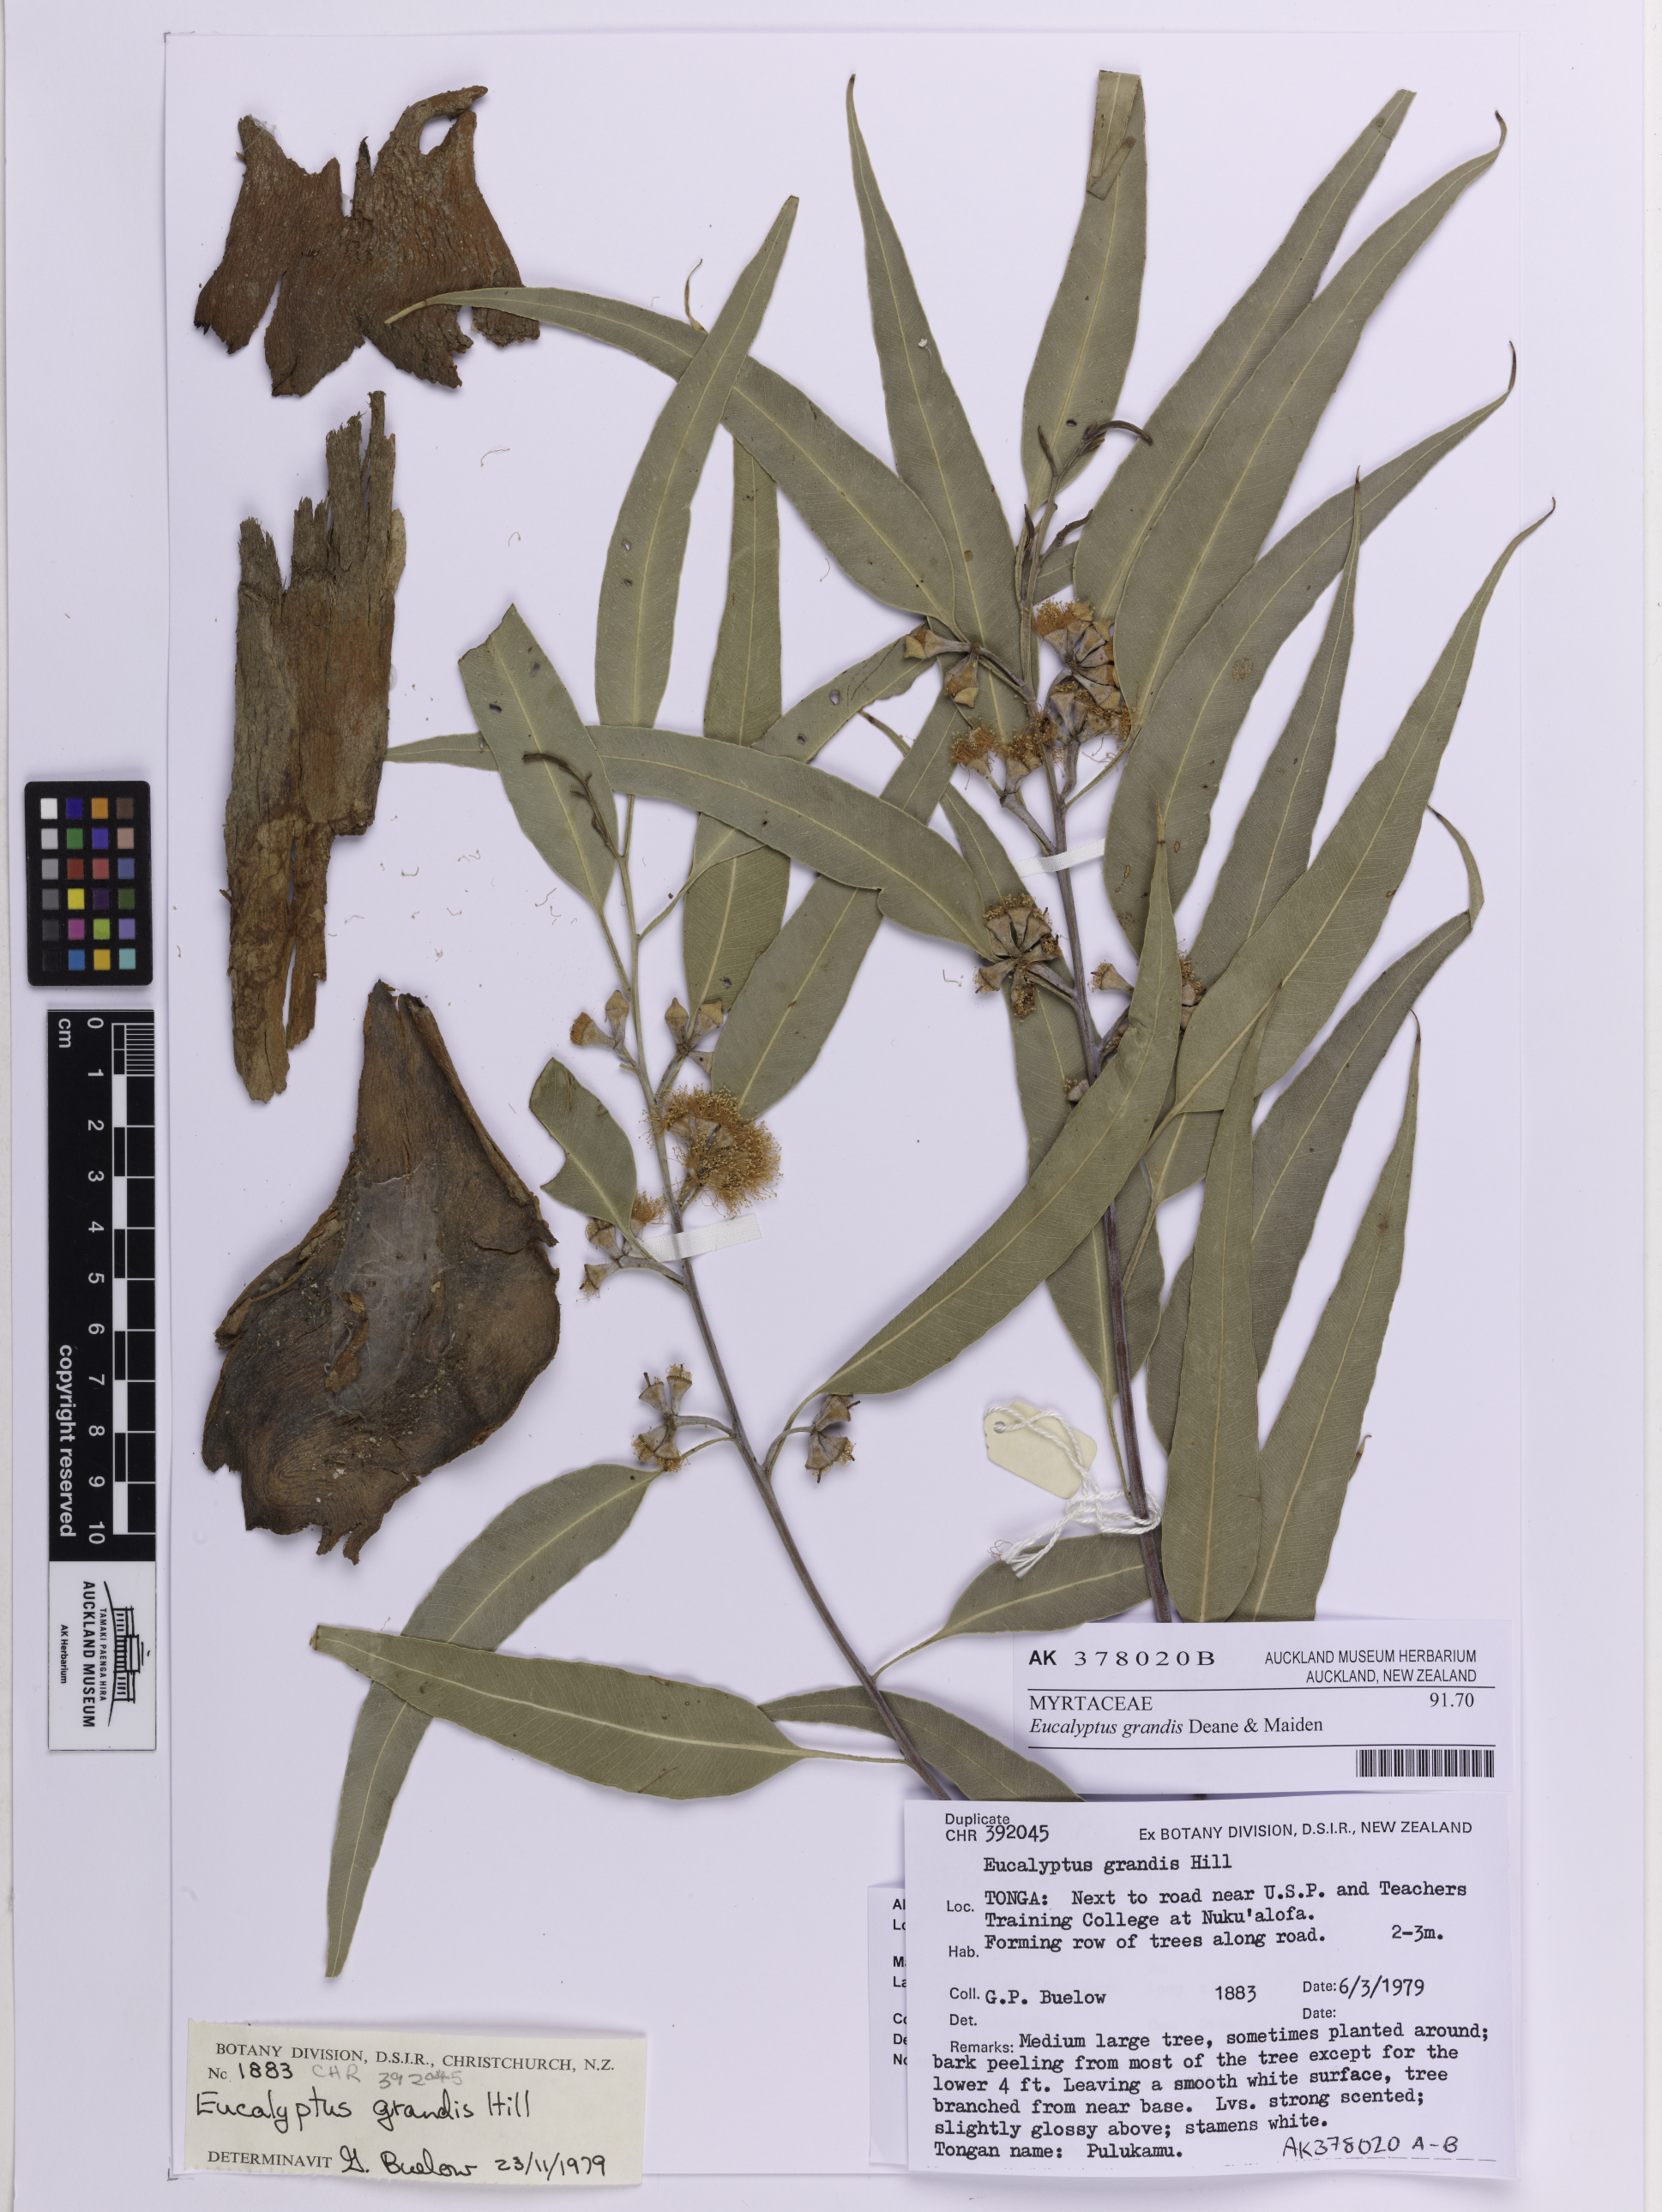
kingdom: Plantae
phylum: Tracheophyta
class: Magnoliopsida
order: Myrtales
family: Myrtaceae
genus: Eucalyptus
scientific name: Eucalyptus grandis
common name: Grand eucalyptus
